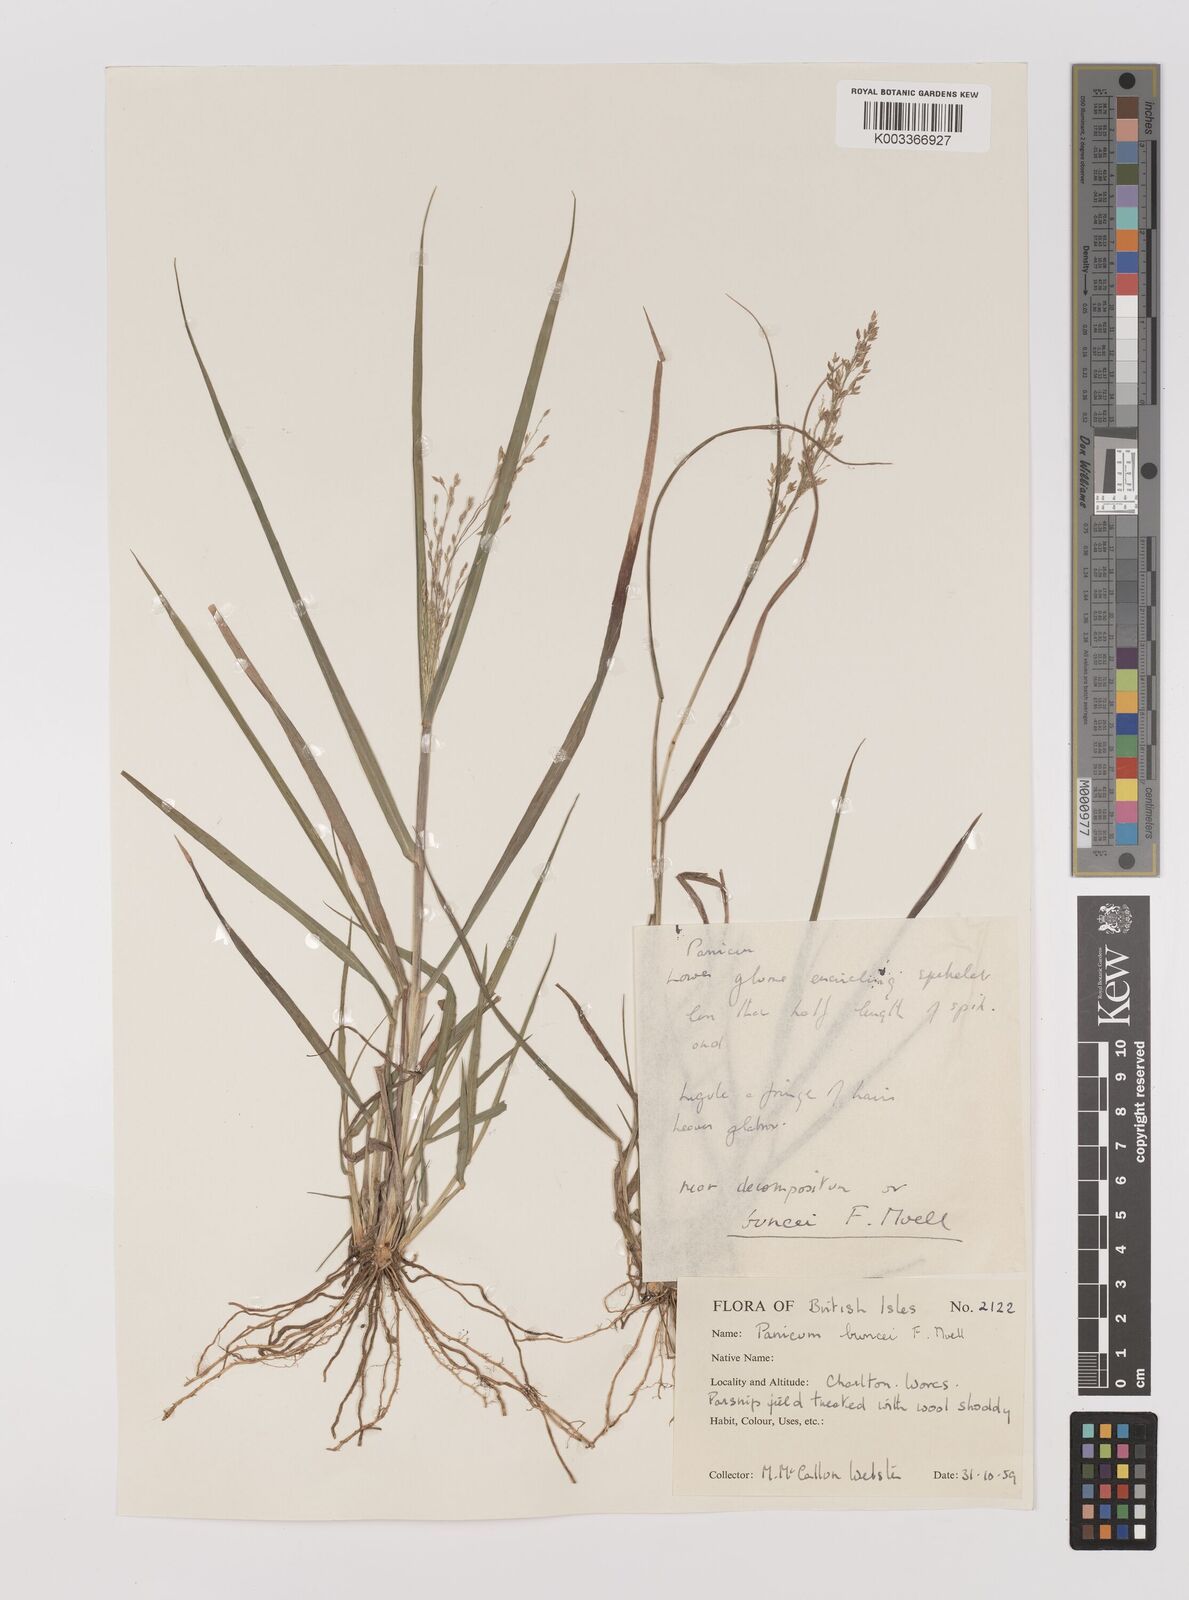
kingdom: Plantae
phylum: Tracheophyta
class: Liliopsida
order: Poales
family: Poaceae
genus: Panicum
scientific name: Panicum buncei
